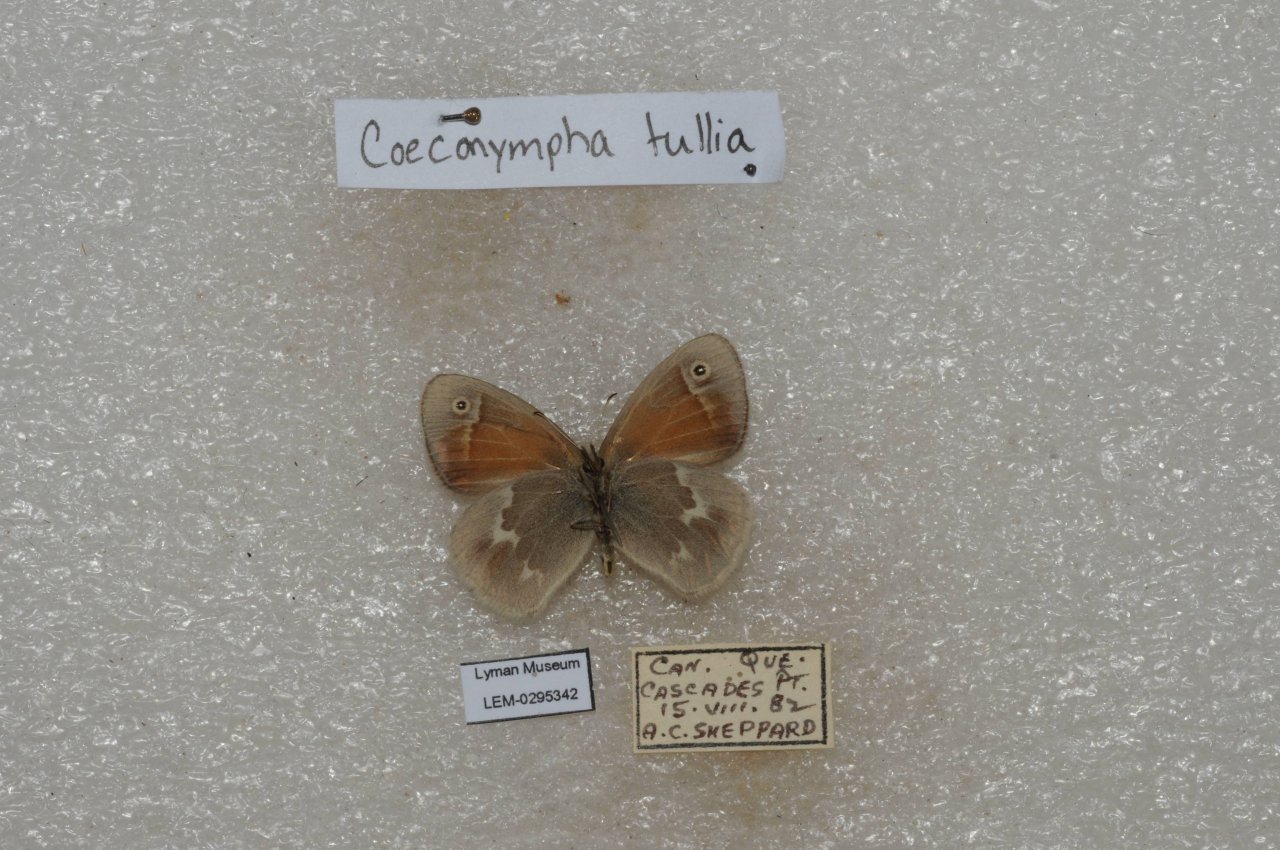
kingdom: Animalia
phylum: Arthropoda
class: Insecta
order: Lepidoptera
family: Nymphalidae
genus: Coenonympha
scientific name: Coenonympha tullia
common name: Large Heath
